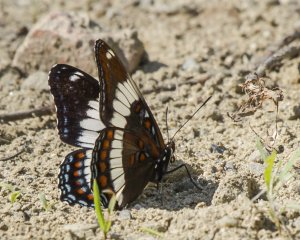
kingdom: Animalia
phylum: Arthropoda
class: Insecta
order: Lepidoptera
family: Nymphalidae
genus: Limenitis
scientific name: Limenitis arthemis
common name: Red-spotted Admiral
